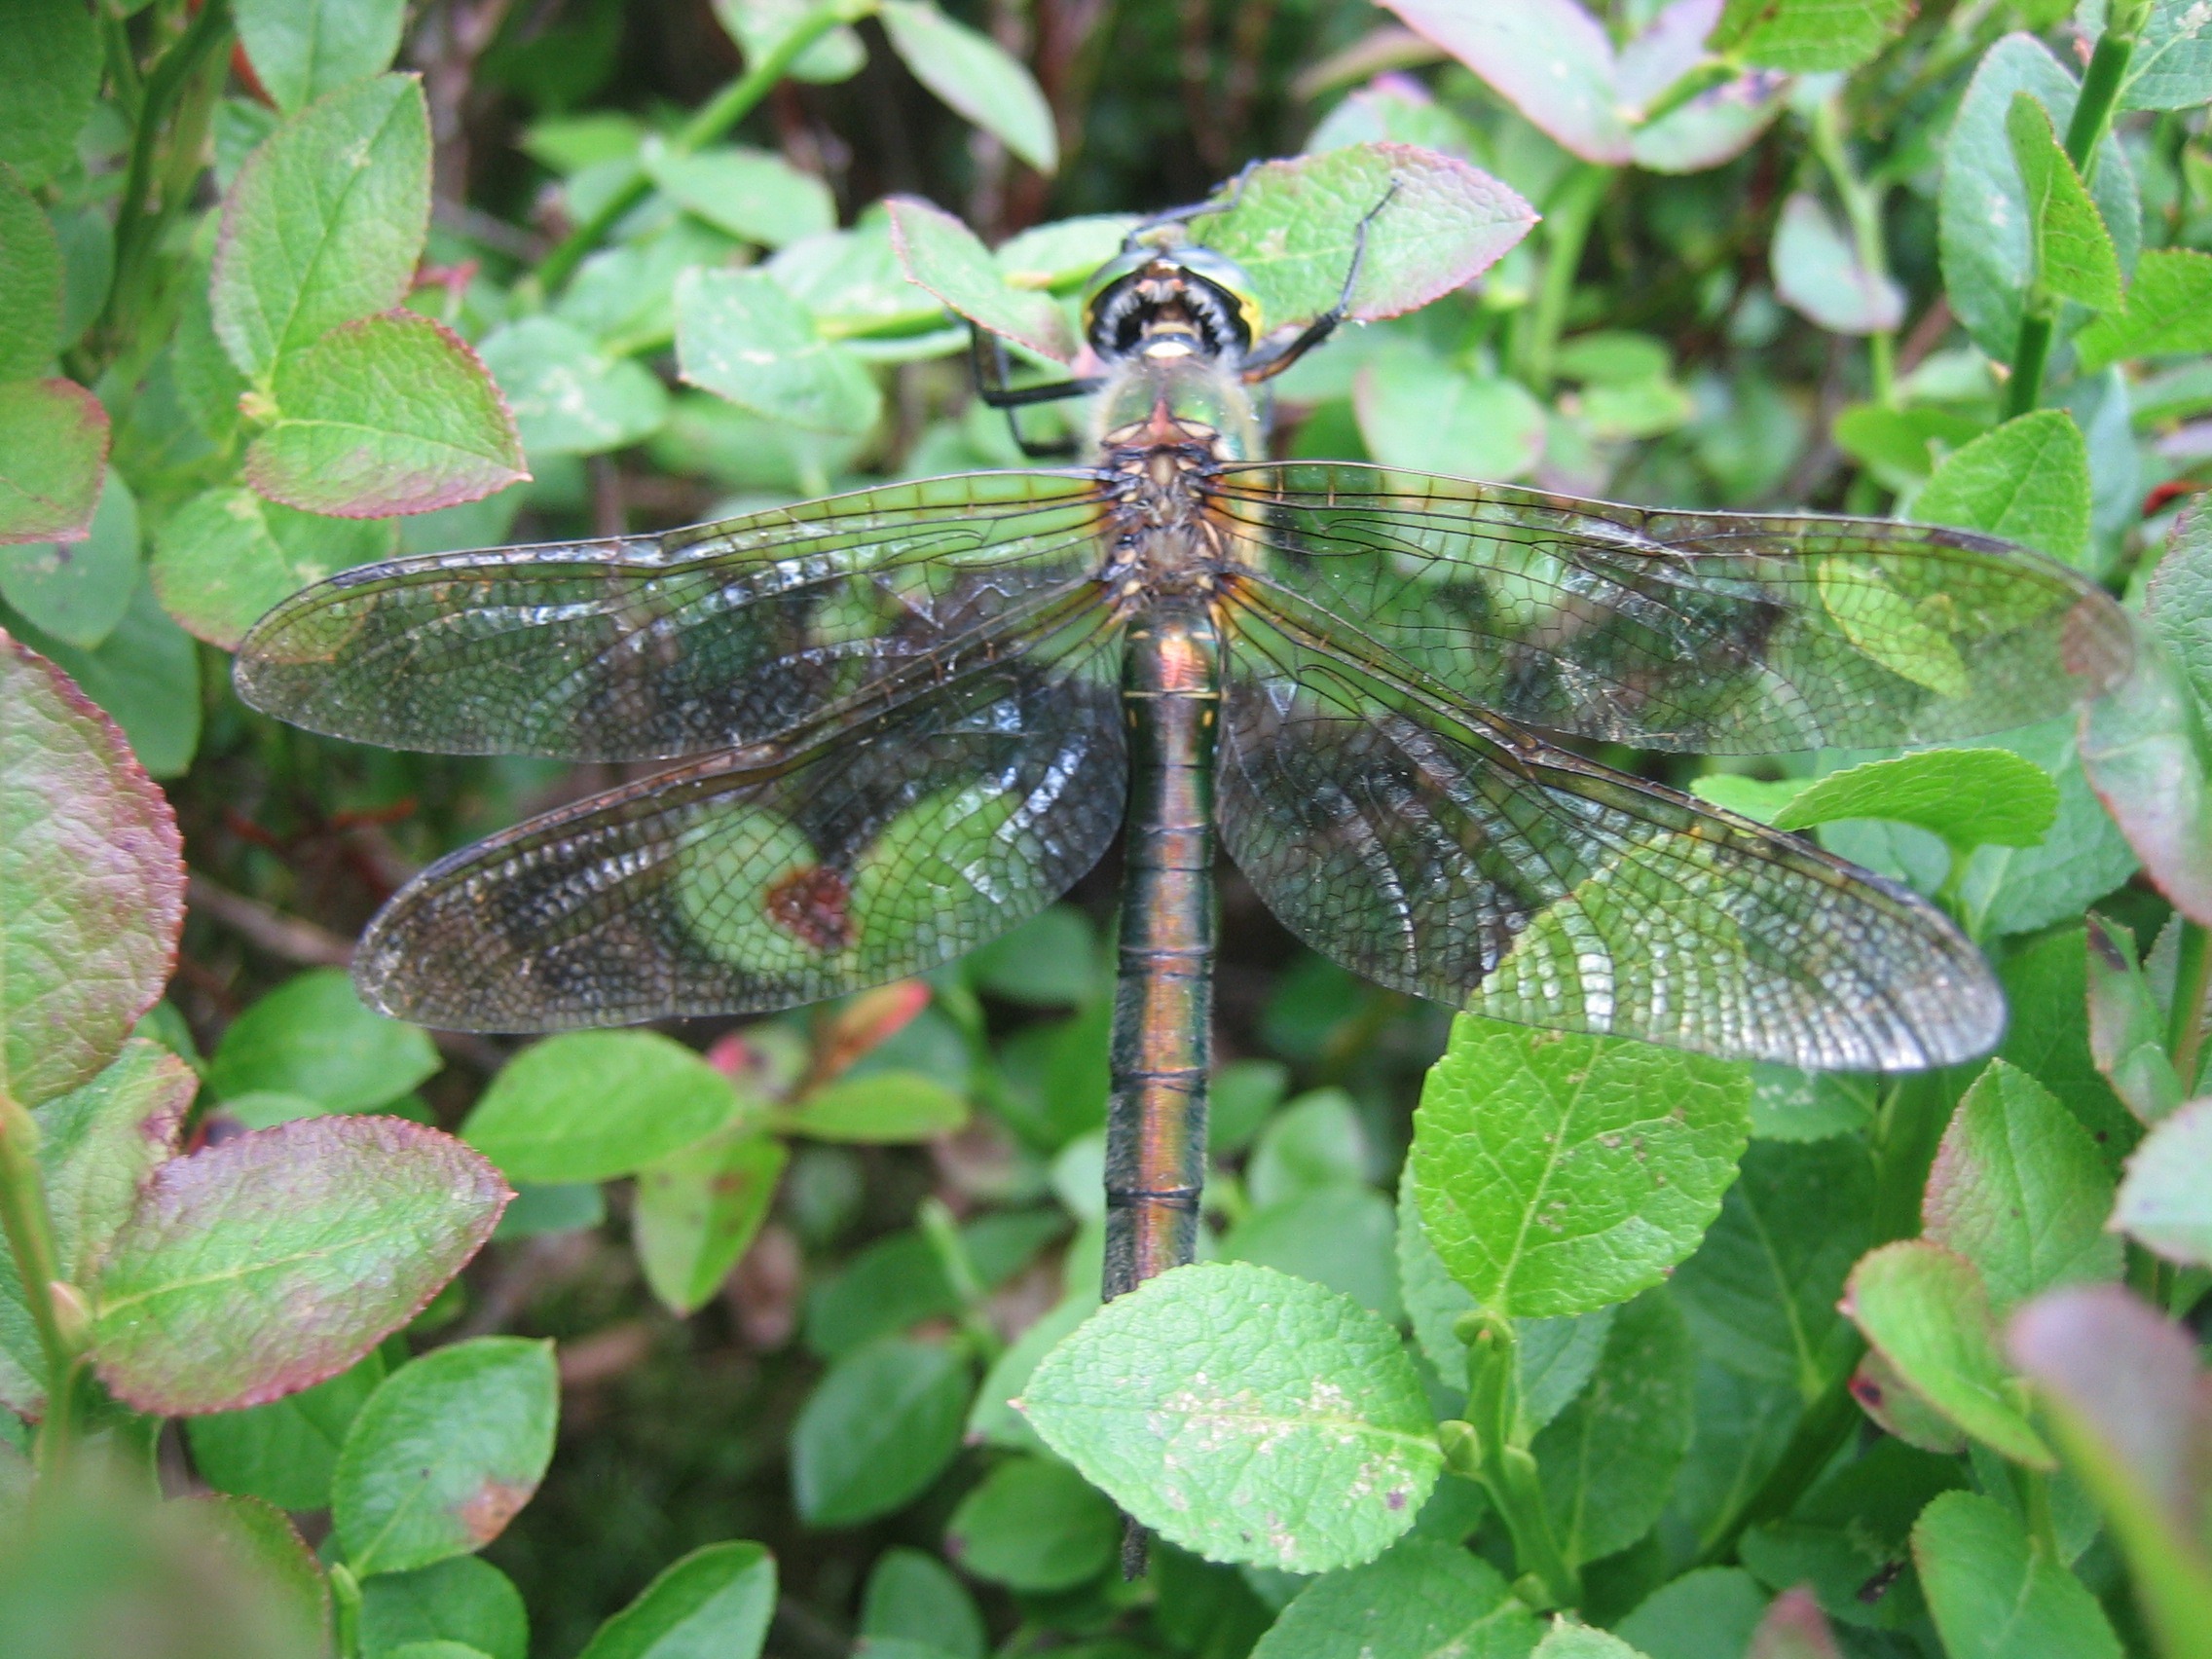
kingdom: Animalia
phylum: Arthropoda
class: Insecta
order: Odonata
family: Corduliidae
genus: Cordulia
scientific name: Cordulia aenea
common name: Grøn smaragdlibel
